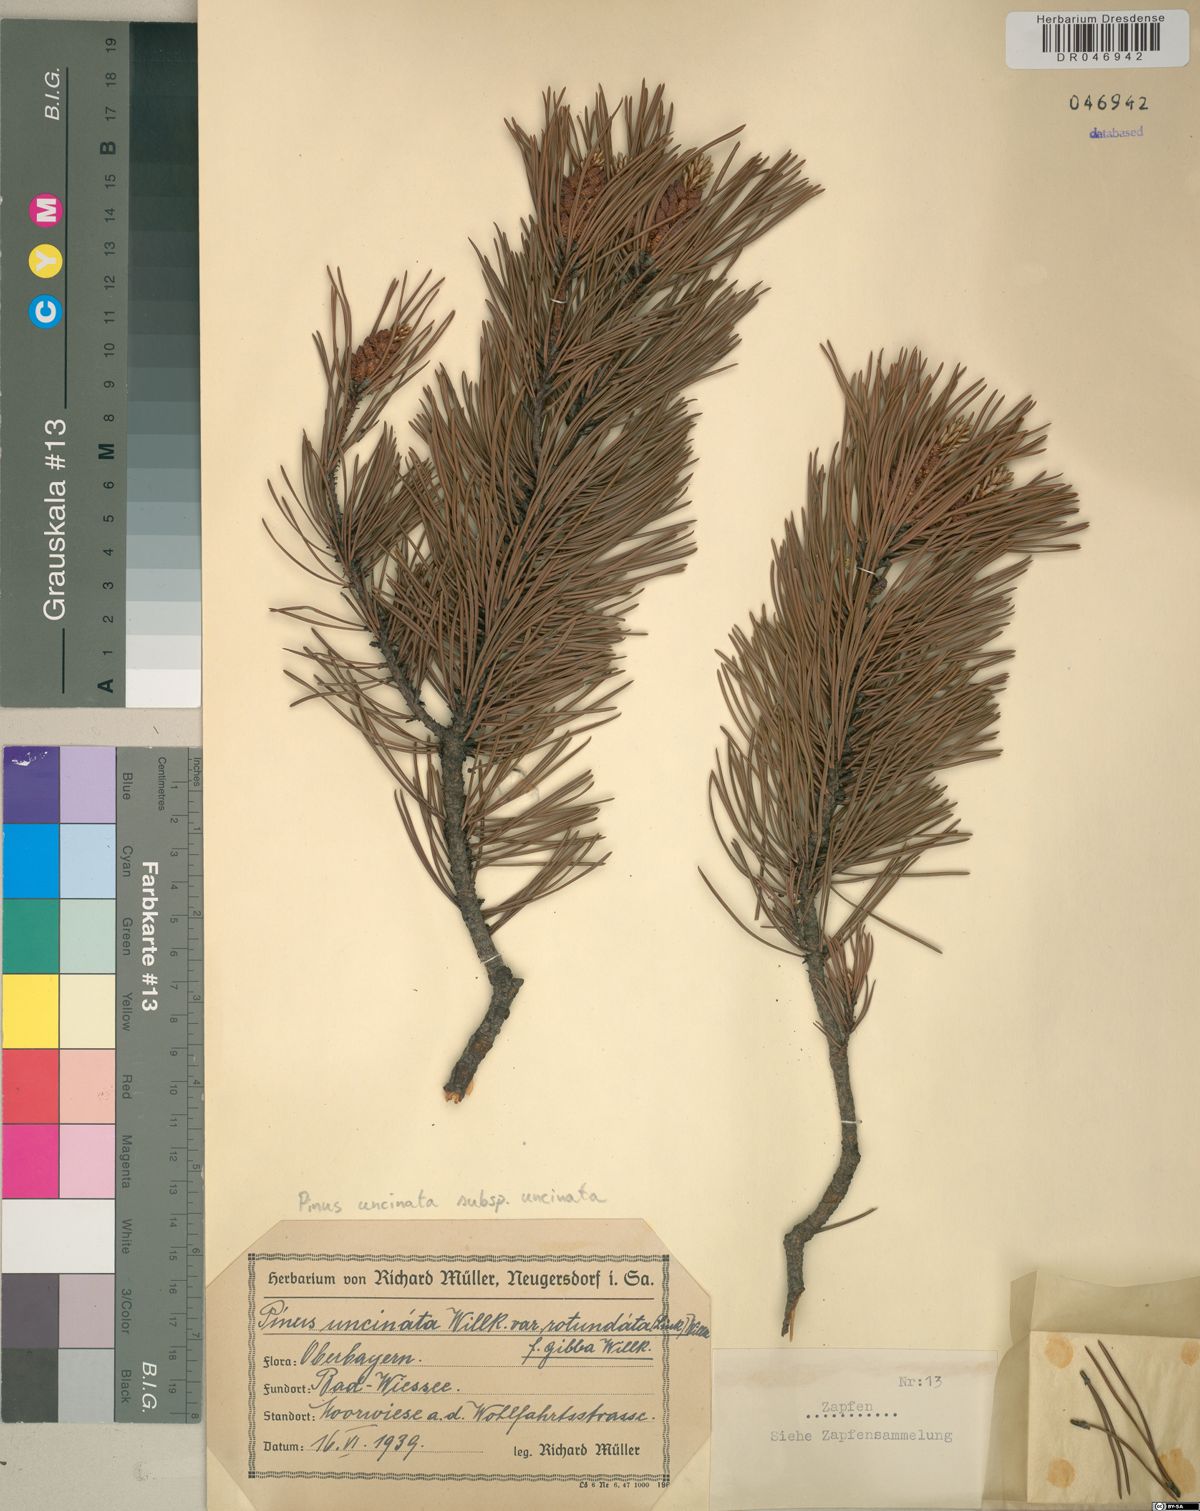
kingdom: Plantae
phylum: Tracheophyta
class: Pinopsida
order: Pinales
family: Pinaceae
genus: Pinus
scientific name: Pinus uncinata
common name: Mountain pine
